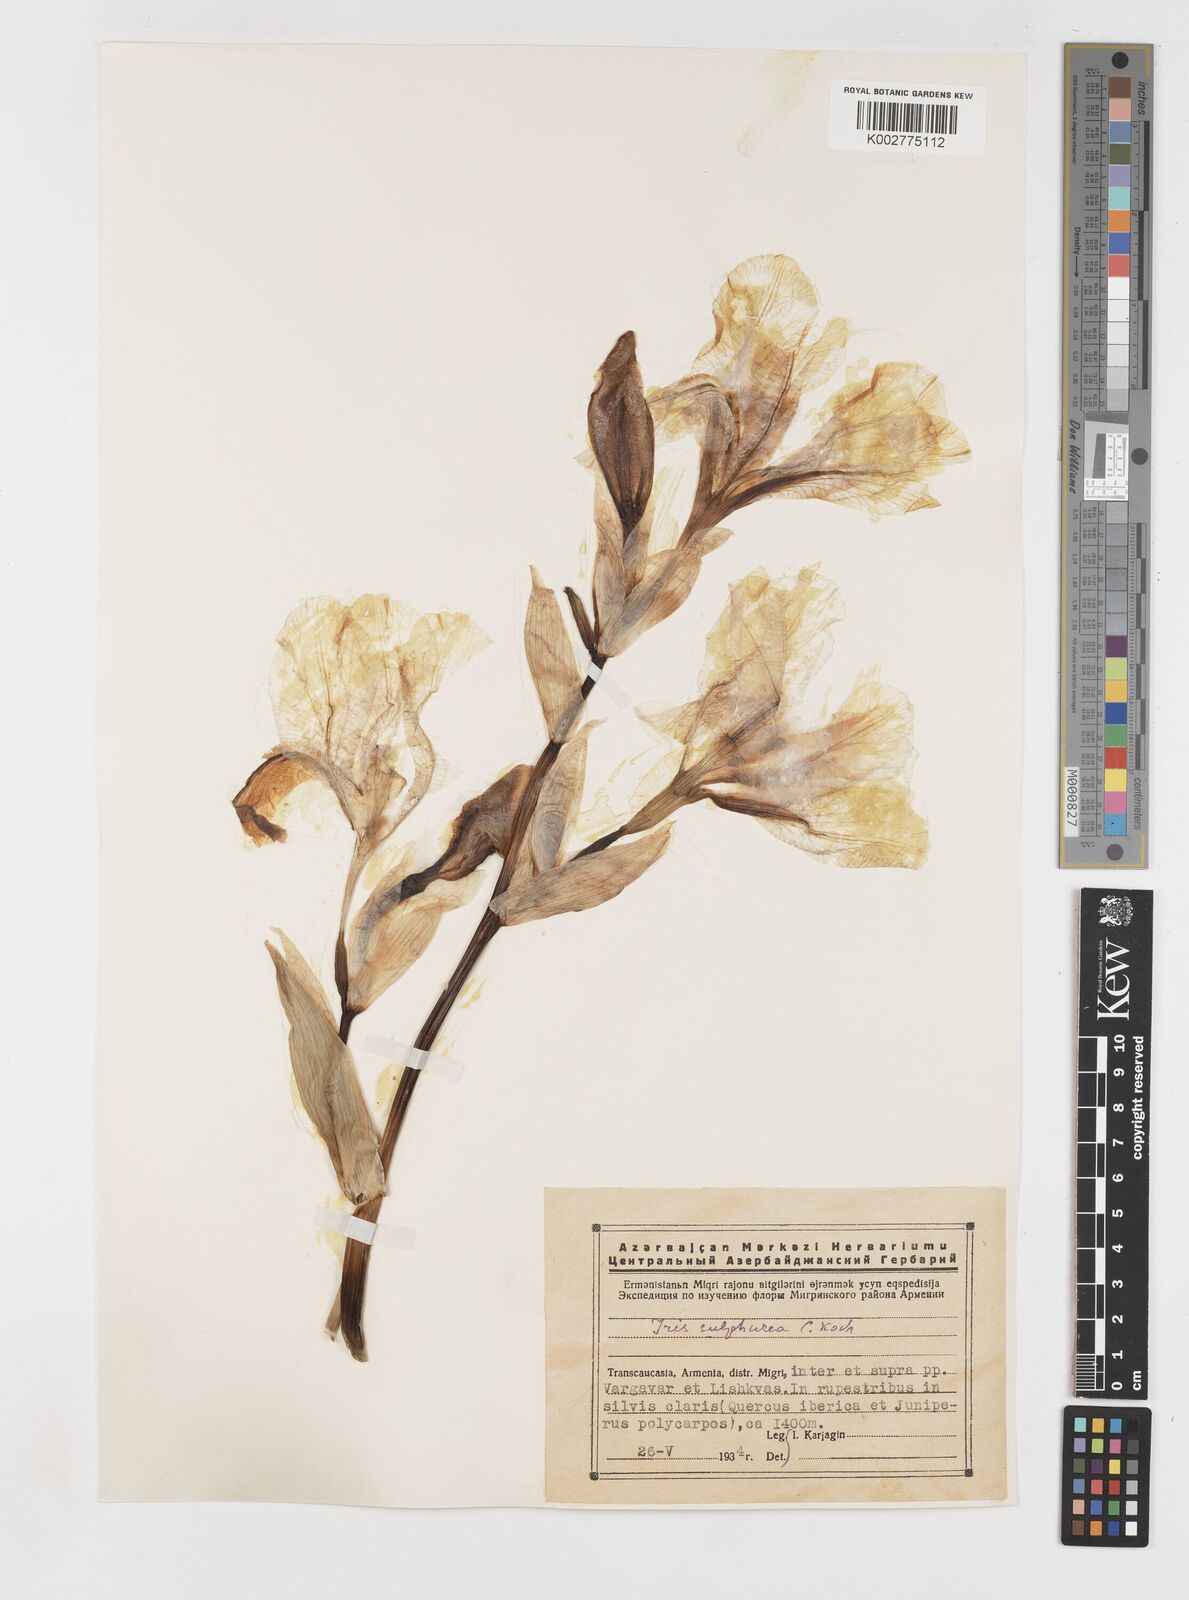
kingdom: Plantae
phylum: Tracheophyta
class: Liliopsida
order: Asparagales
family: Iridaceae
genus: Iris
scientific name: Iris imbricata
